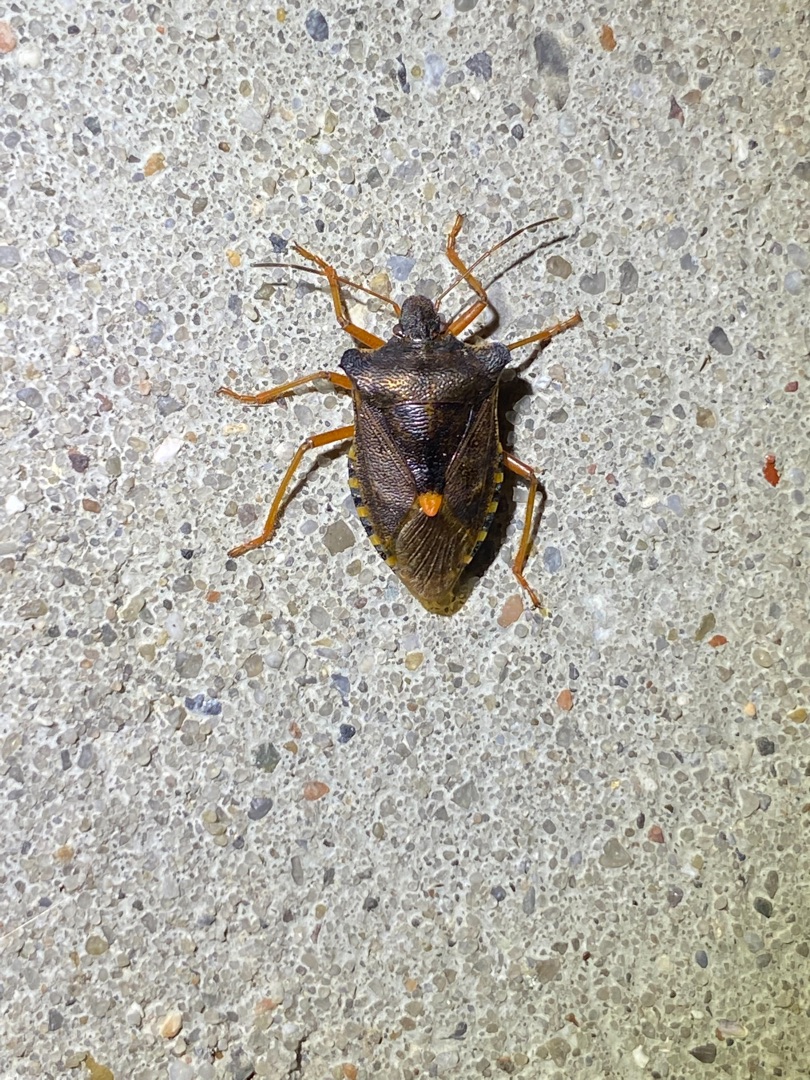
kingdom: Animalia
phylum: Arthropoda
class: Insecta
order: Hemiptera
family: Pentatomidae
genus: Pentatoma
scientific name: Pentatoma rufipes
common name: Rødbenet bredtæge
